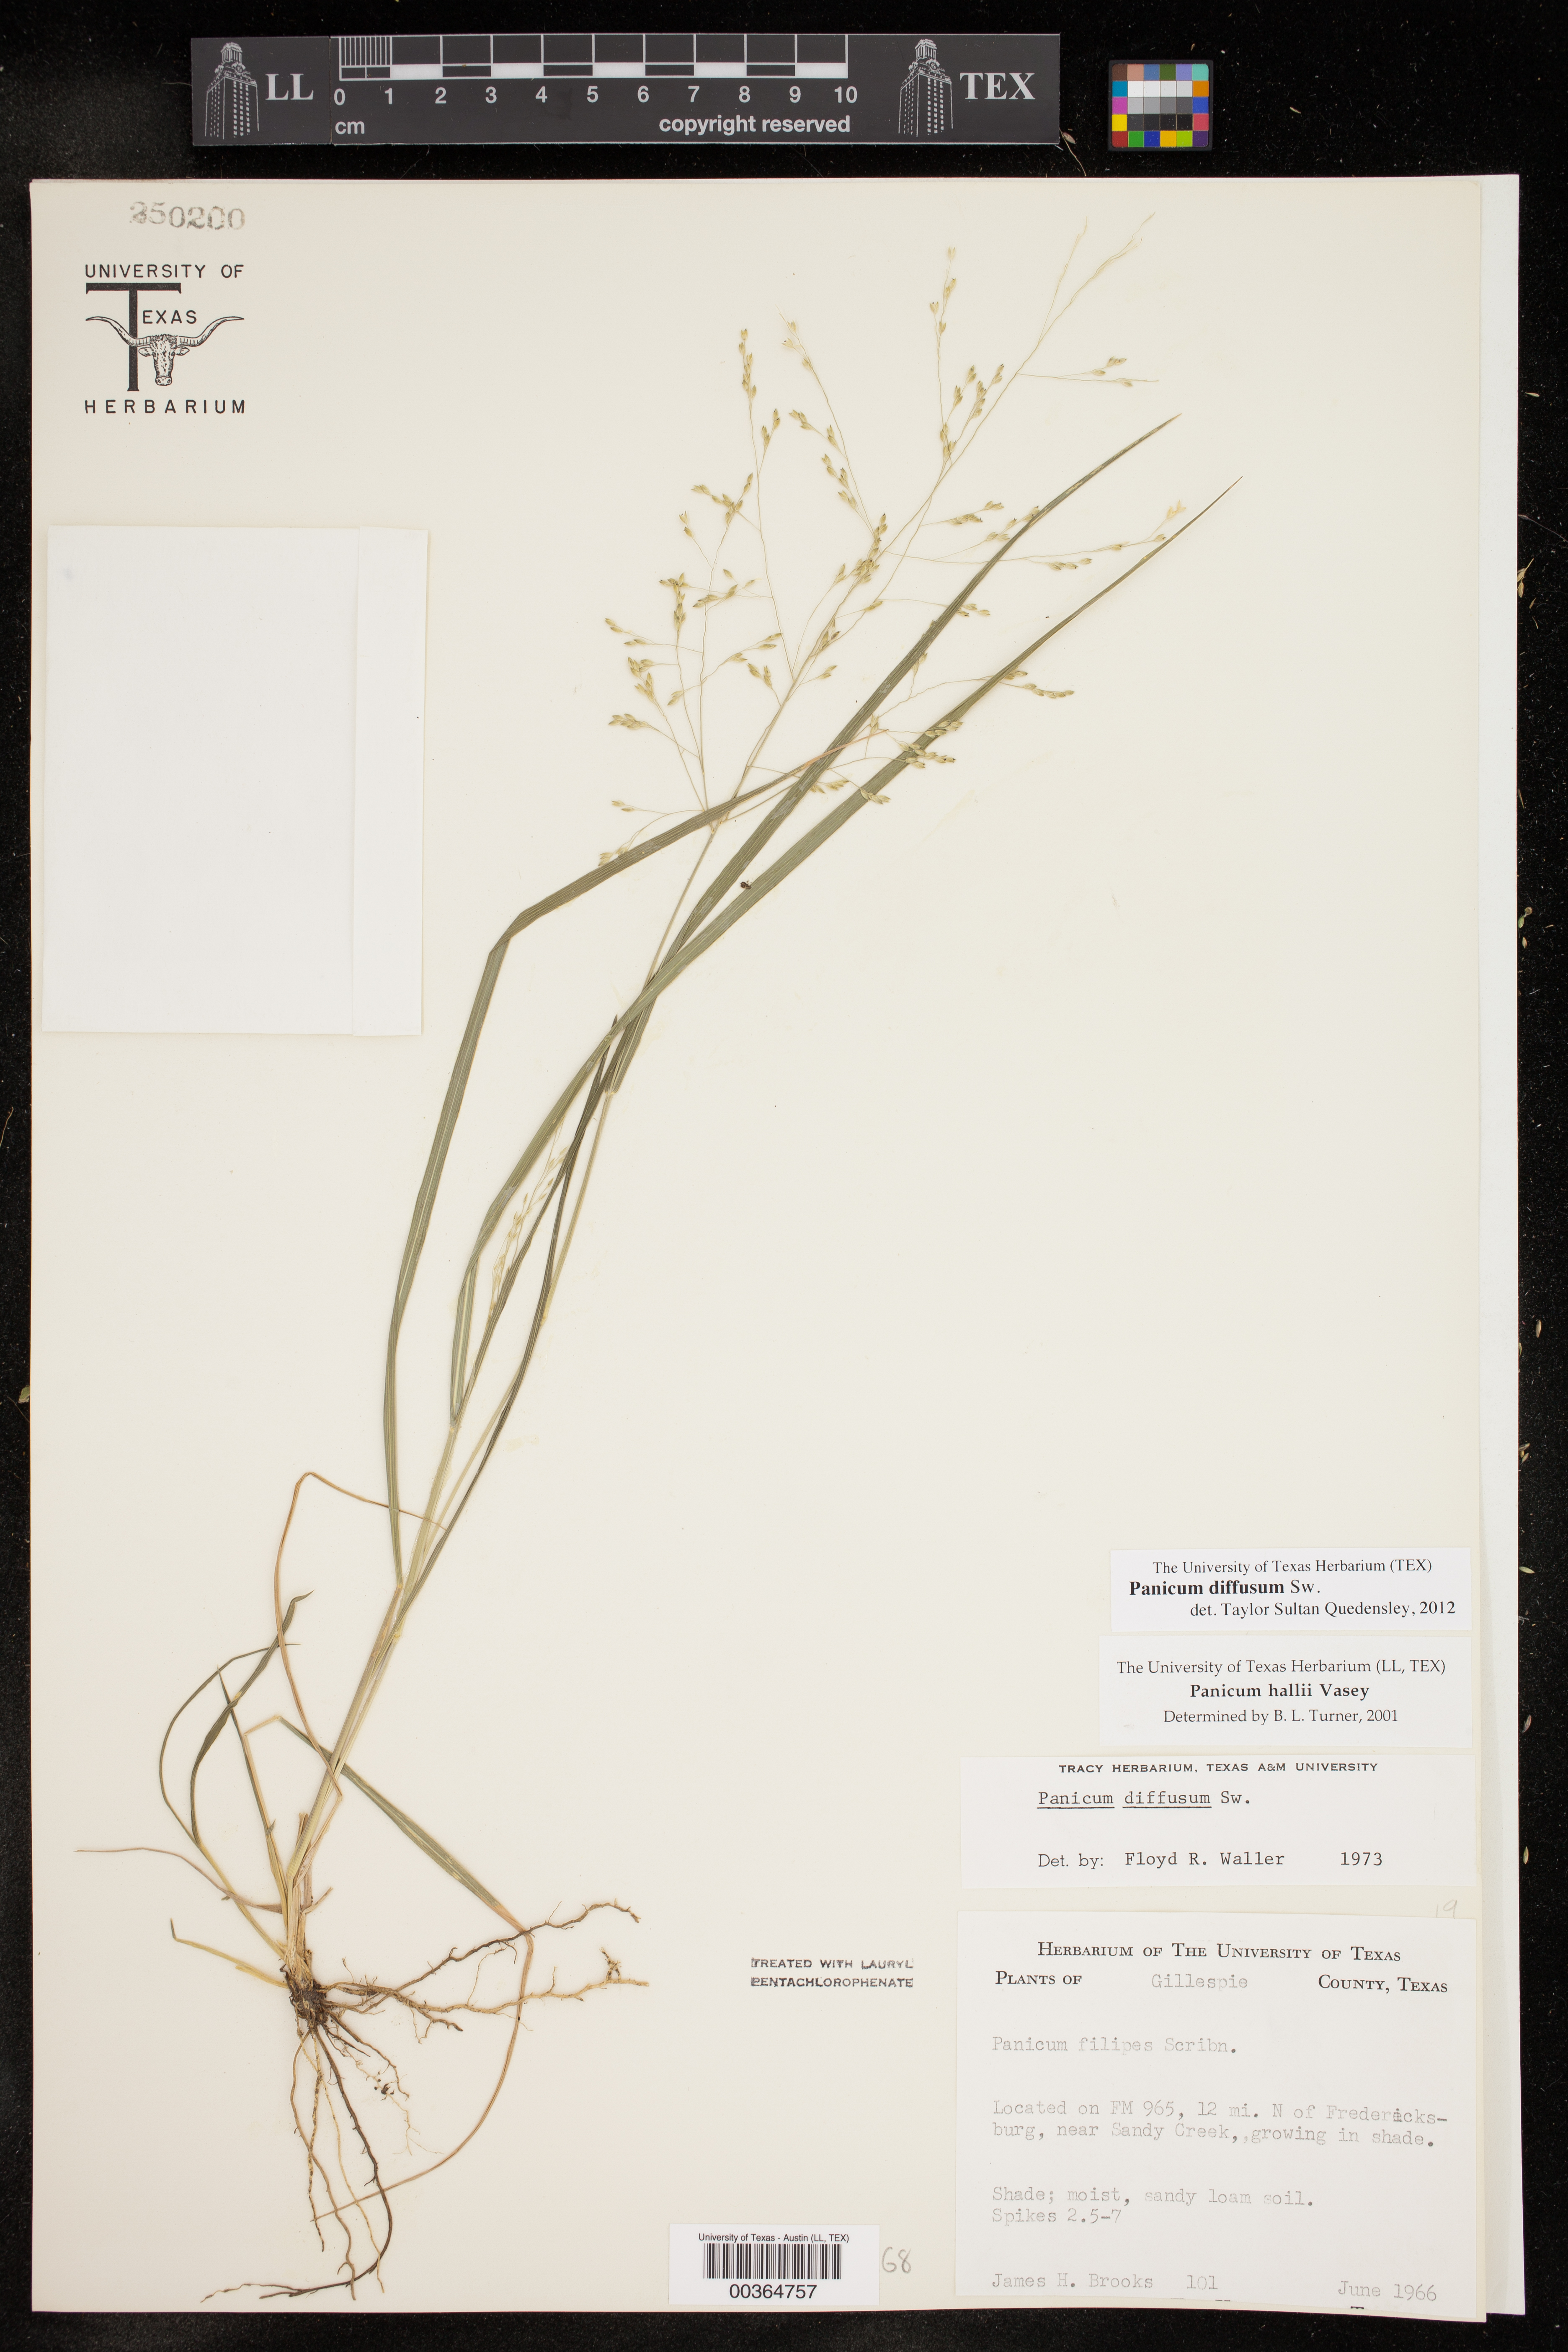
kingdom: Plantae
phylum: Tracheophyta
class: Liliopsida
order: Poales
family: Poaceae
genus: Panicum
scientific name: Panicum diffusum
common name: Spreading panicgrass
